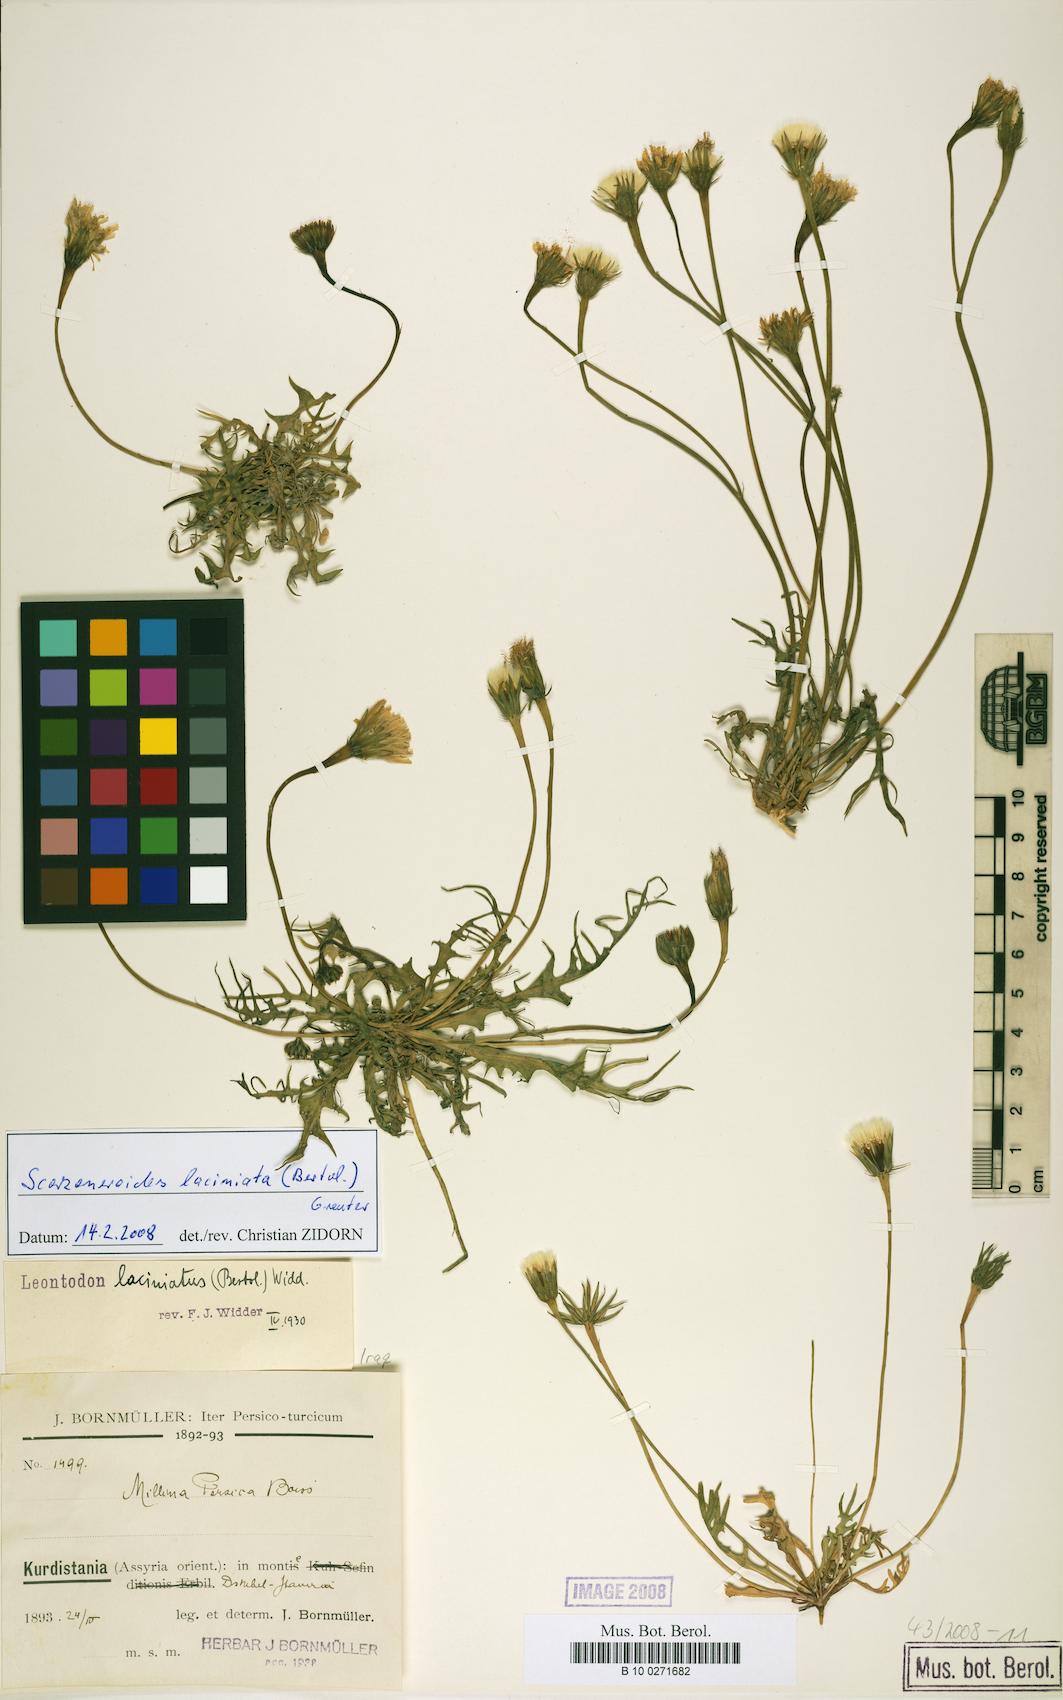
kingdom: Plantae
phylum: Tracheophyta
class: Magnoliopsida
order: Asterales
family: Asteraceae
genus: Leontodon
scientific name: Leontodon laciniatus
